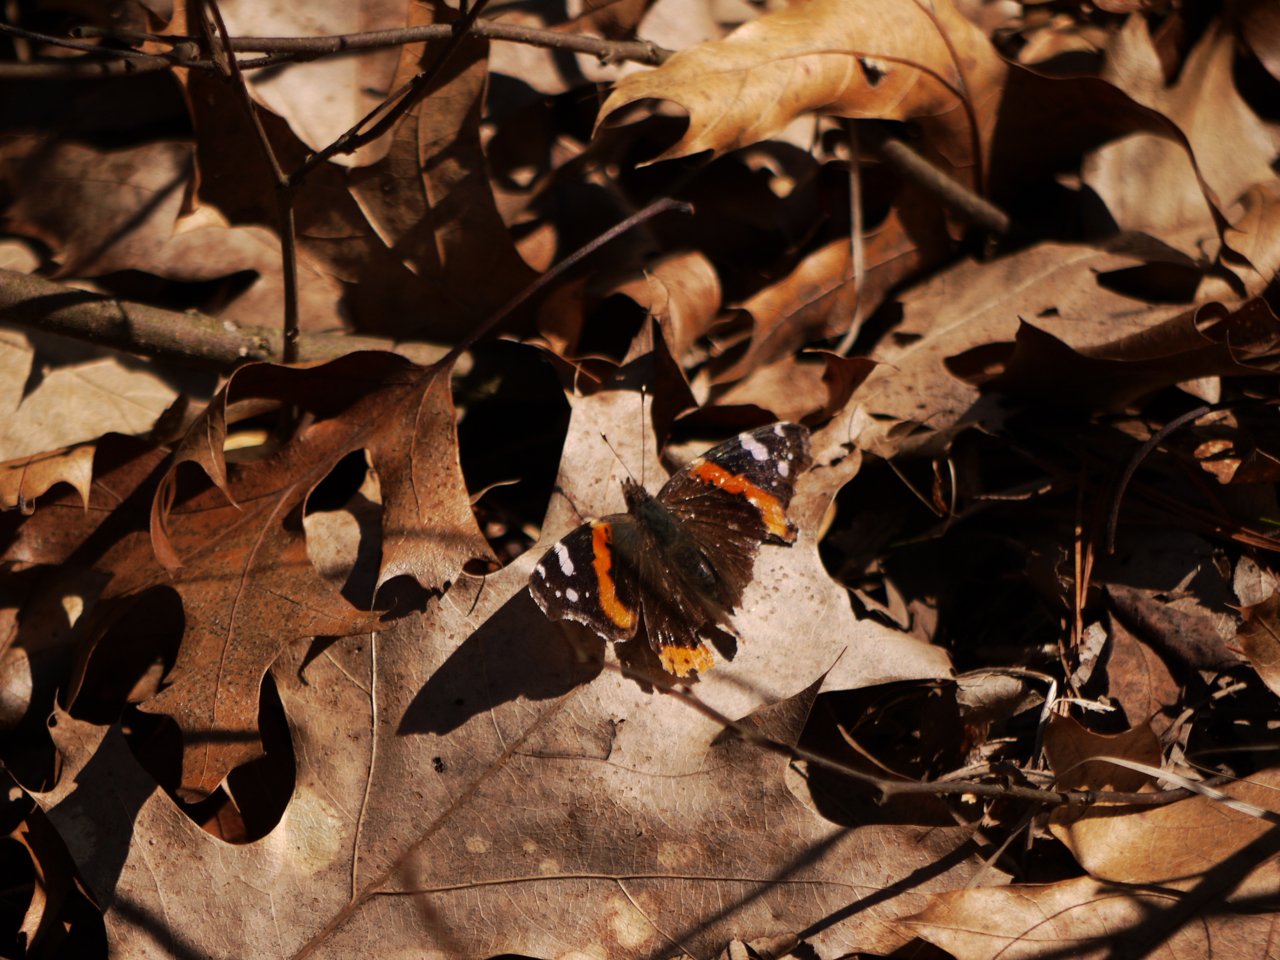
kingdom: Animalia
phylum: Arthropoda
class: Insecta
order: Lepidoptera
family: Nymphalidae
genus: Vanessa
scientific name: Vanessa atalanta
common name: Red Admiral
